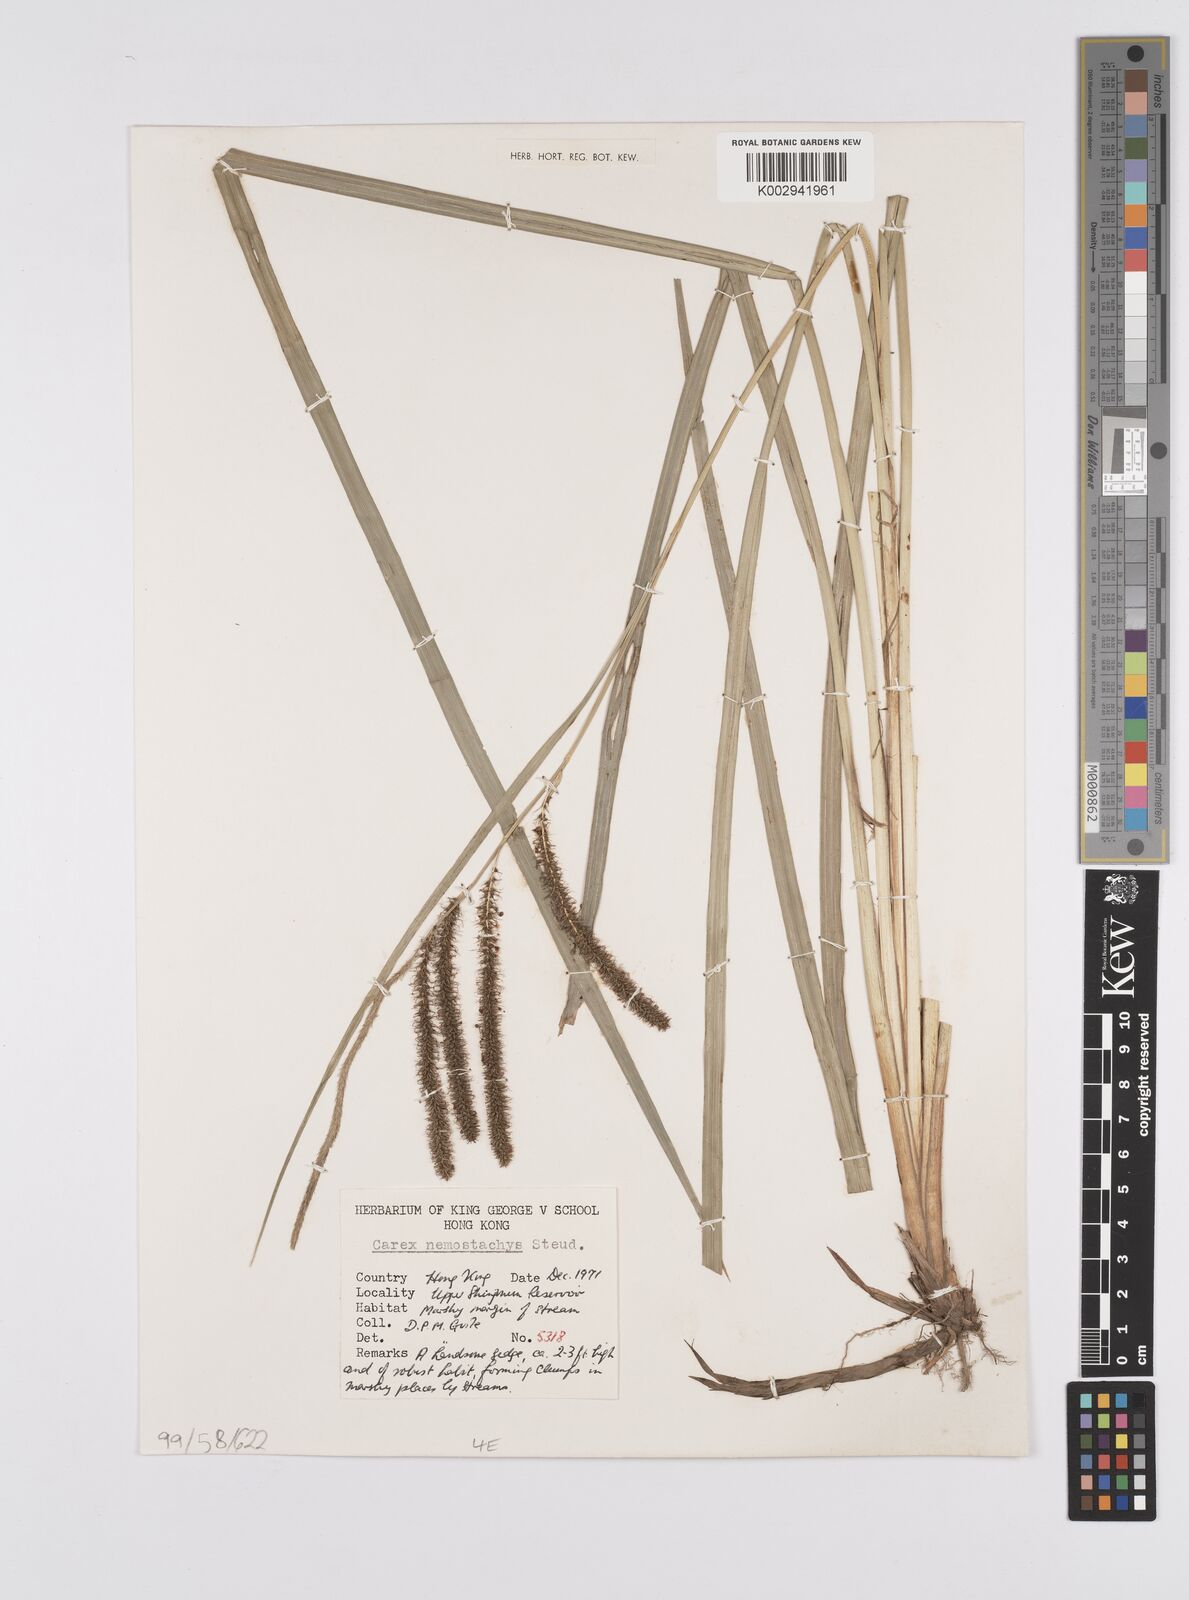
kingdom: Plantae
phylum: Tracheophyta
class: Liliopsida
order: Poales
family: Cyperaceae
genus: Carex
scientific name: Carex nemostachys
